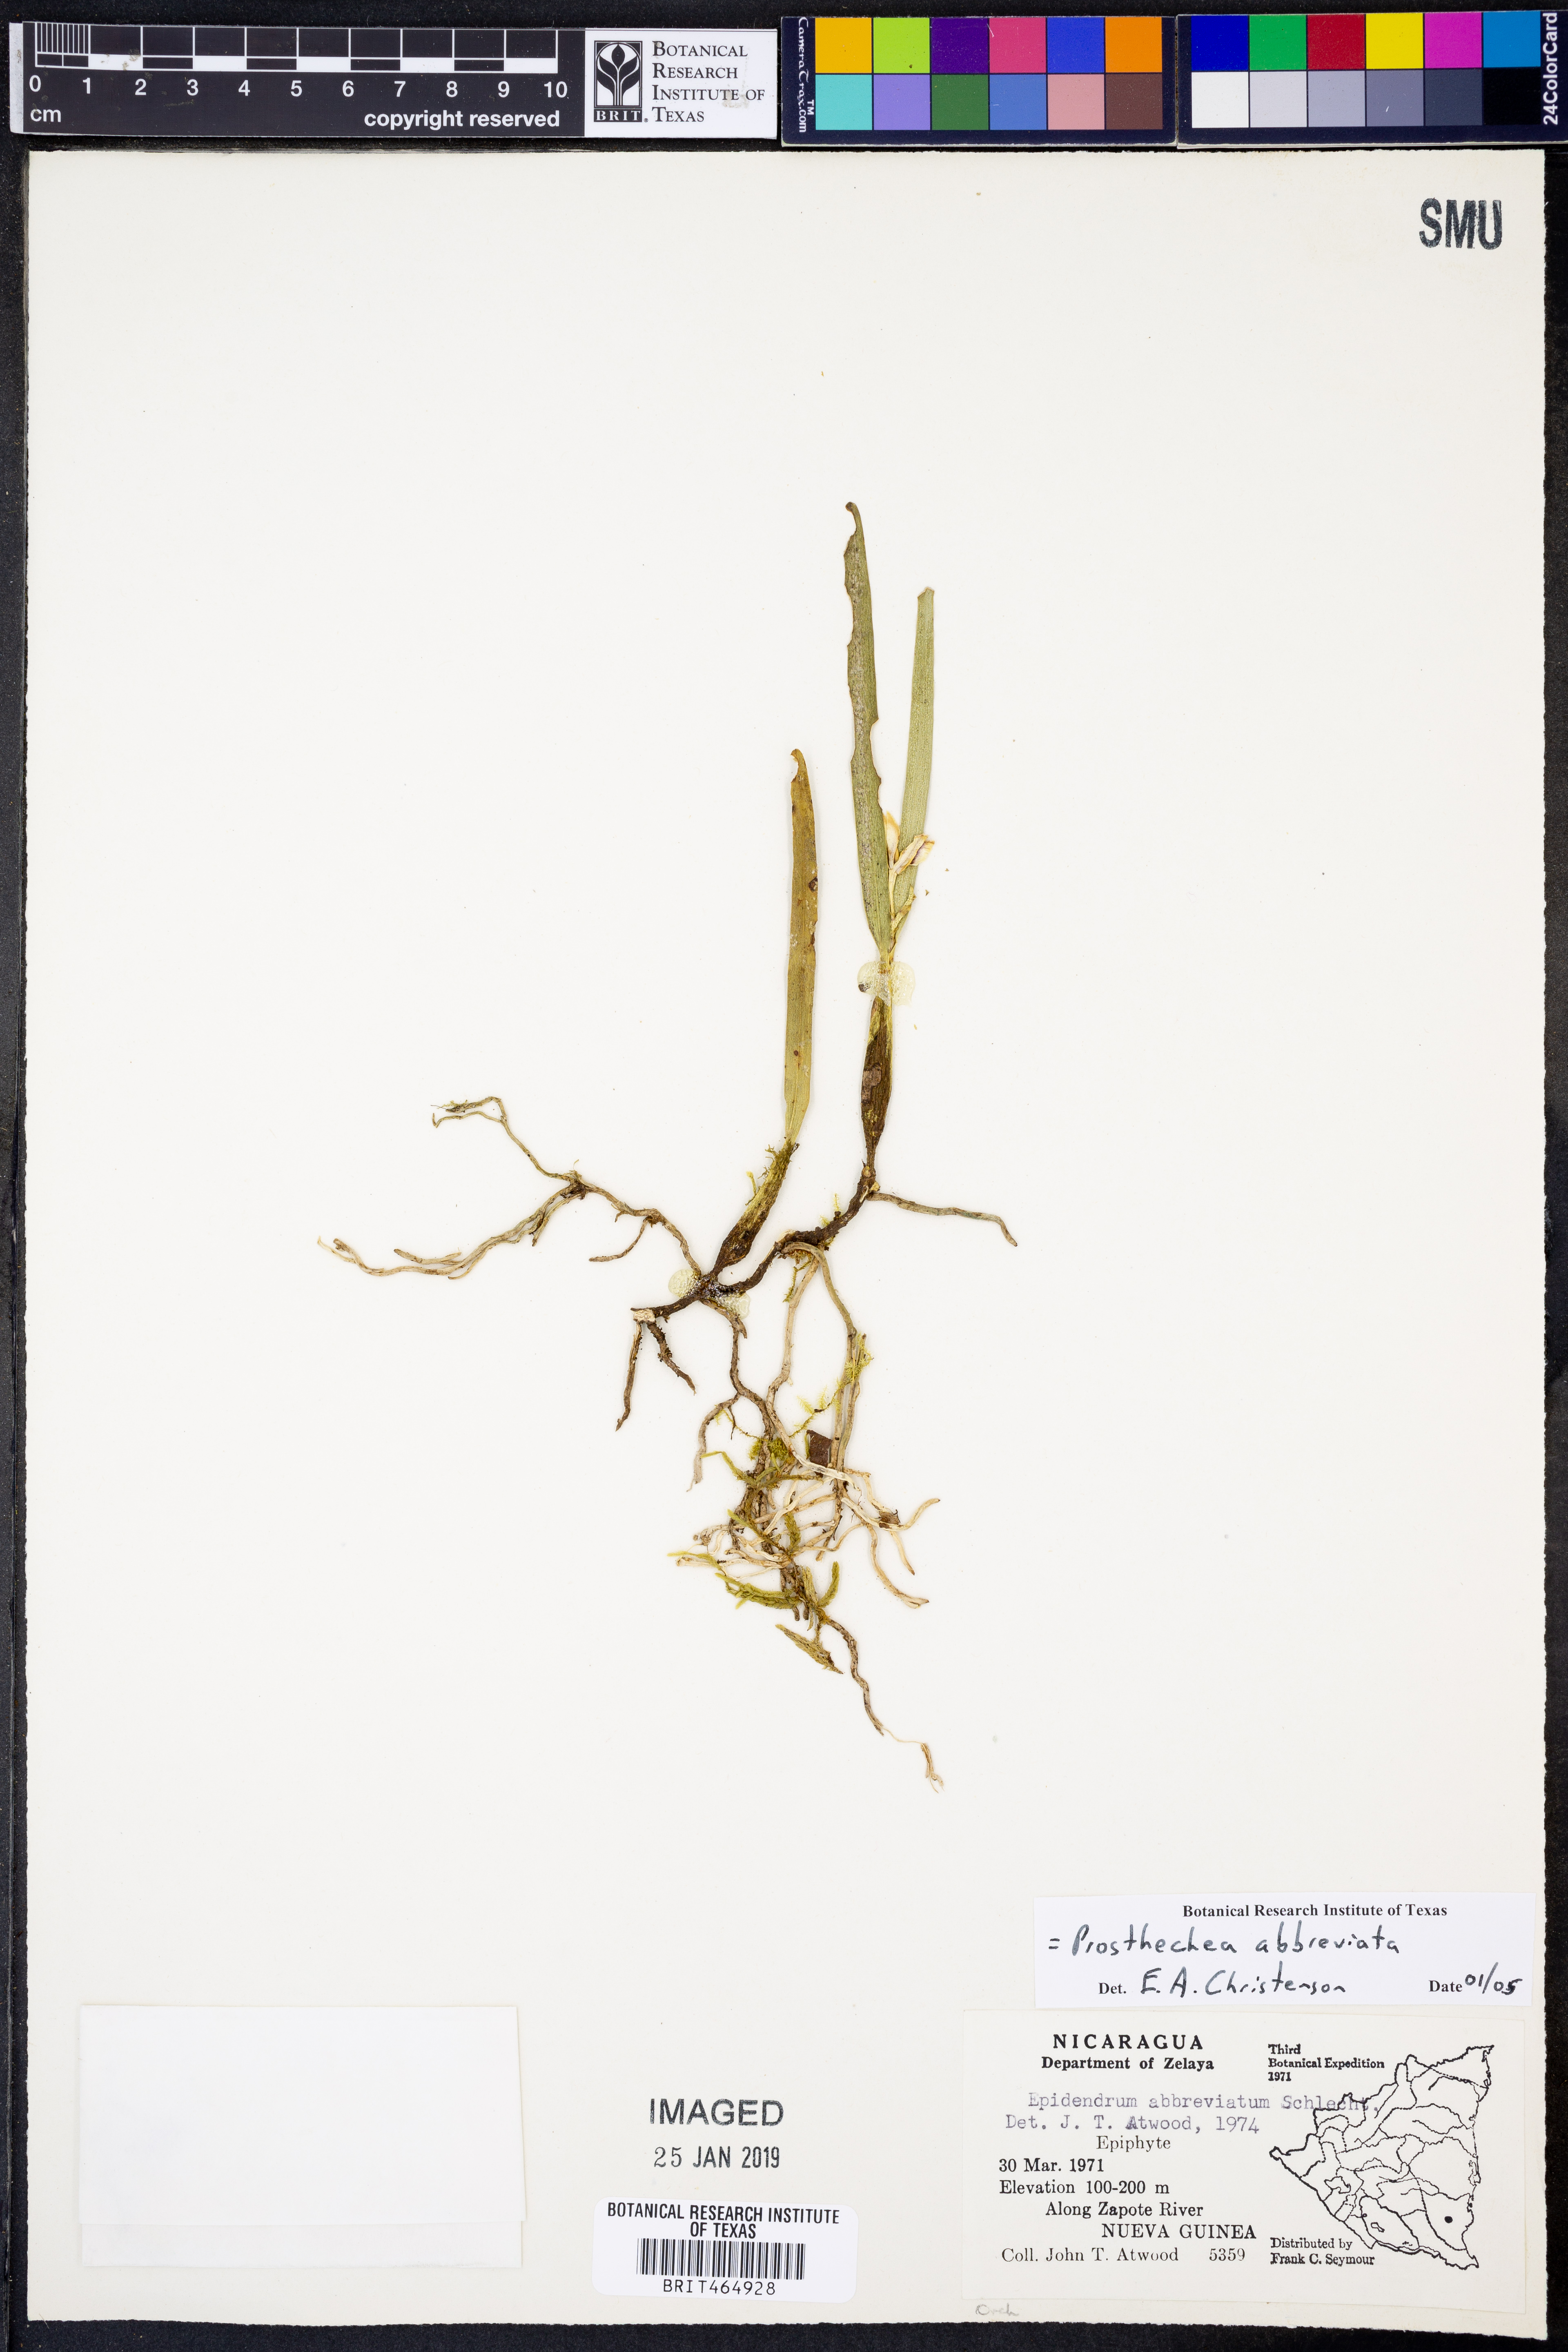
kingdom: Plantae
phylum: Tracheophyta
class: Liliopsida
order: Asparagales
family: Orchidaceae
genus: Prosthechea
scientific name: Prosthechea abbreviata
